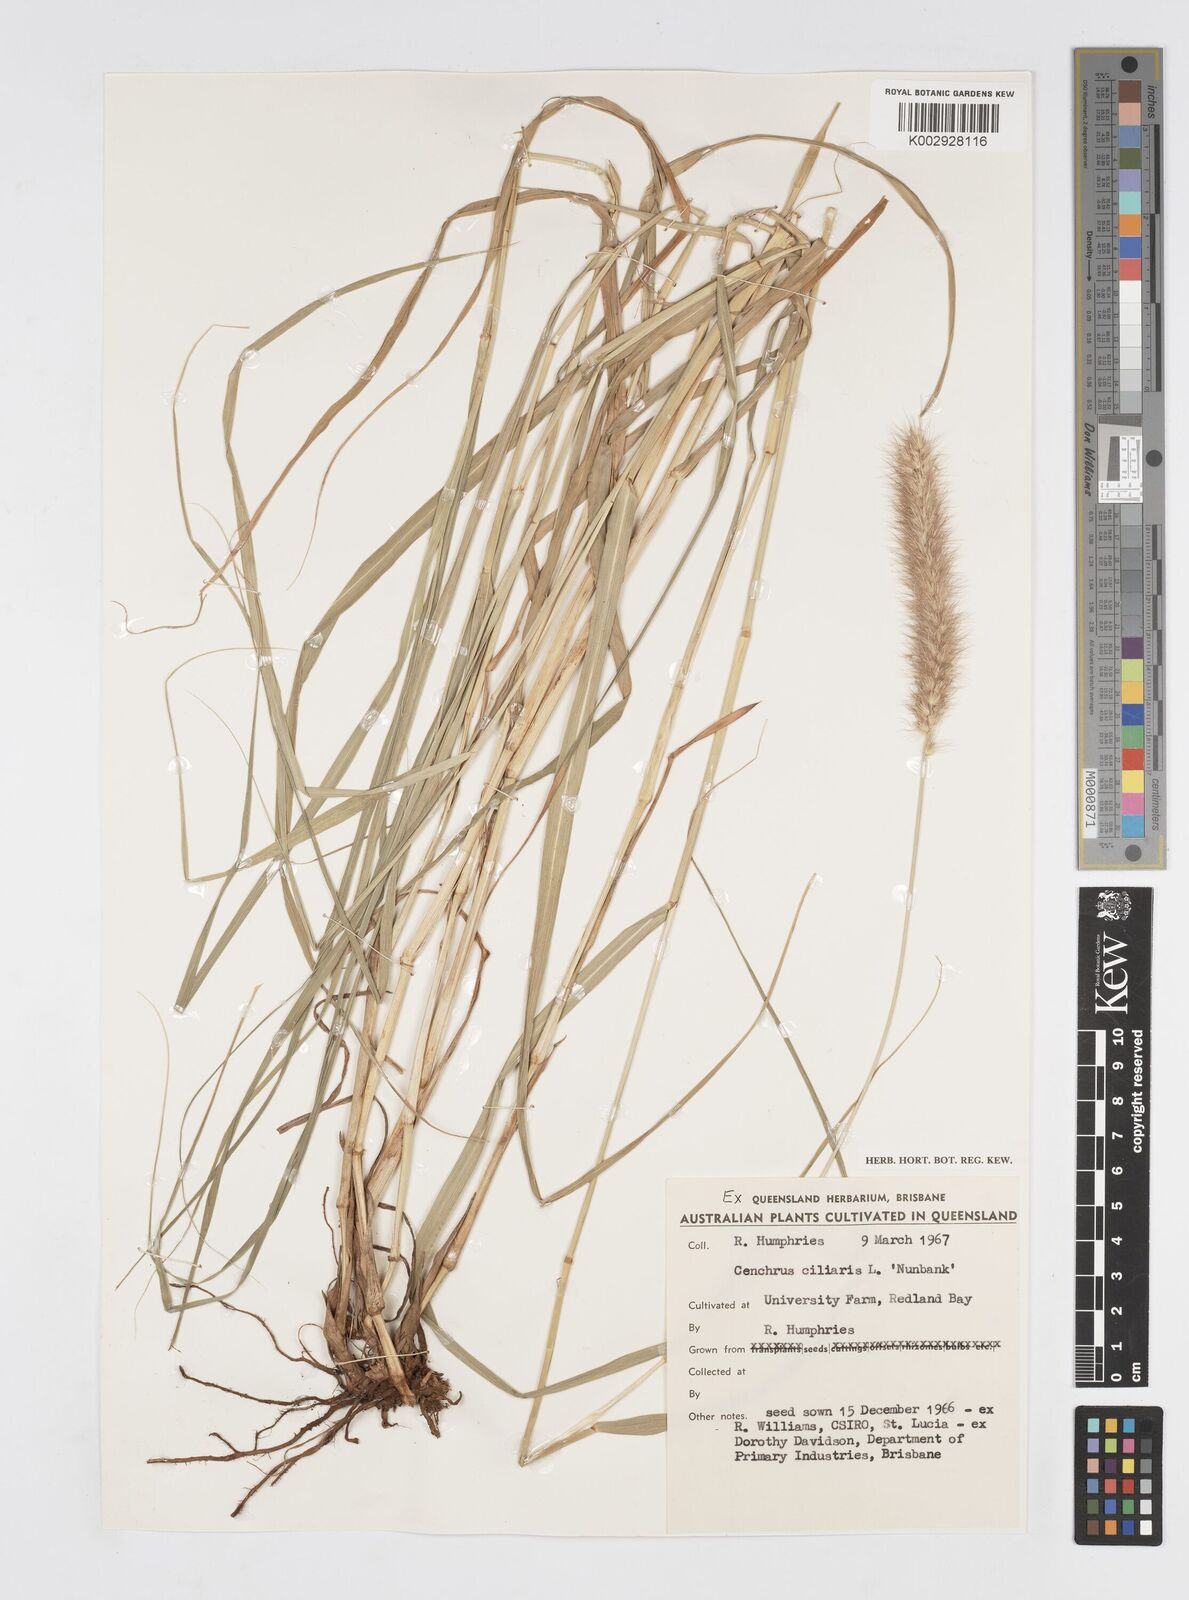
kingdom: Plantae
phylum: Tracheophyta
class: Liliopsida
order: Poales
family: Poaceae
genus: Cenchrus
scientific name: Cenchrus ciliaris
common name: Buffelgrass
